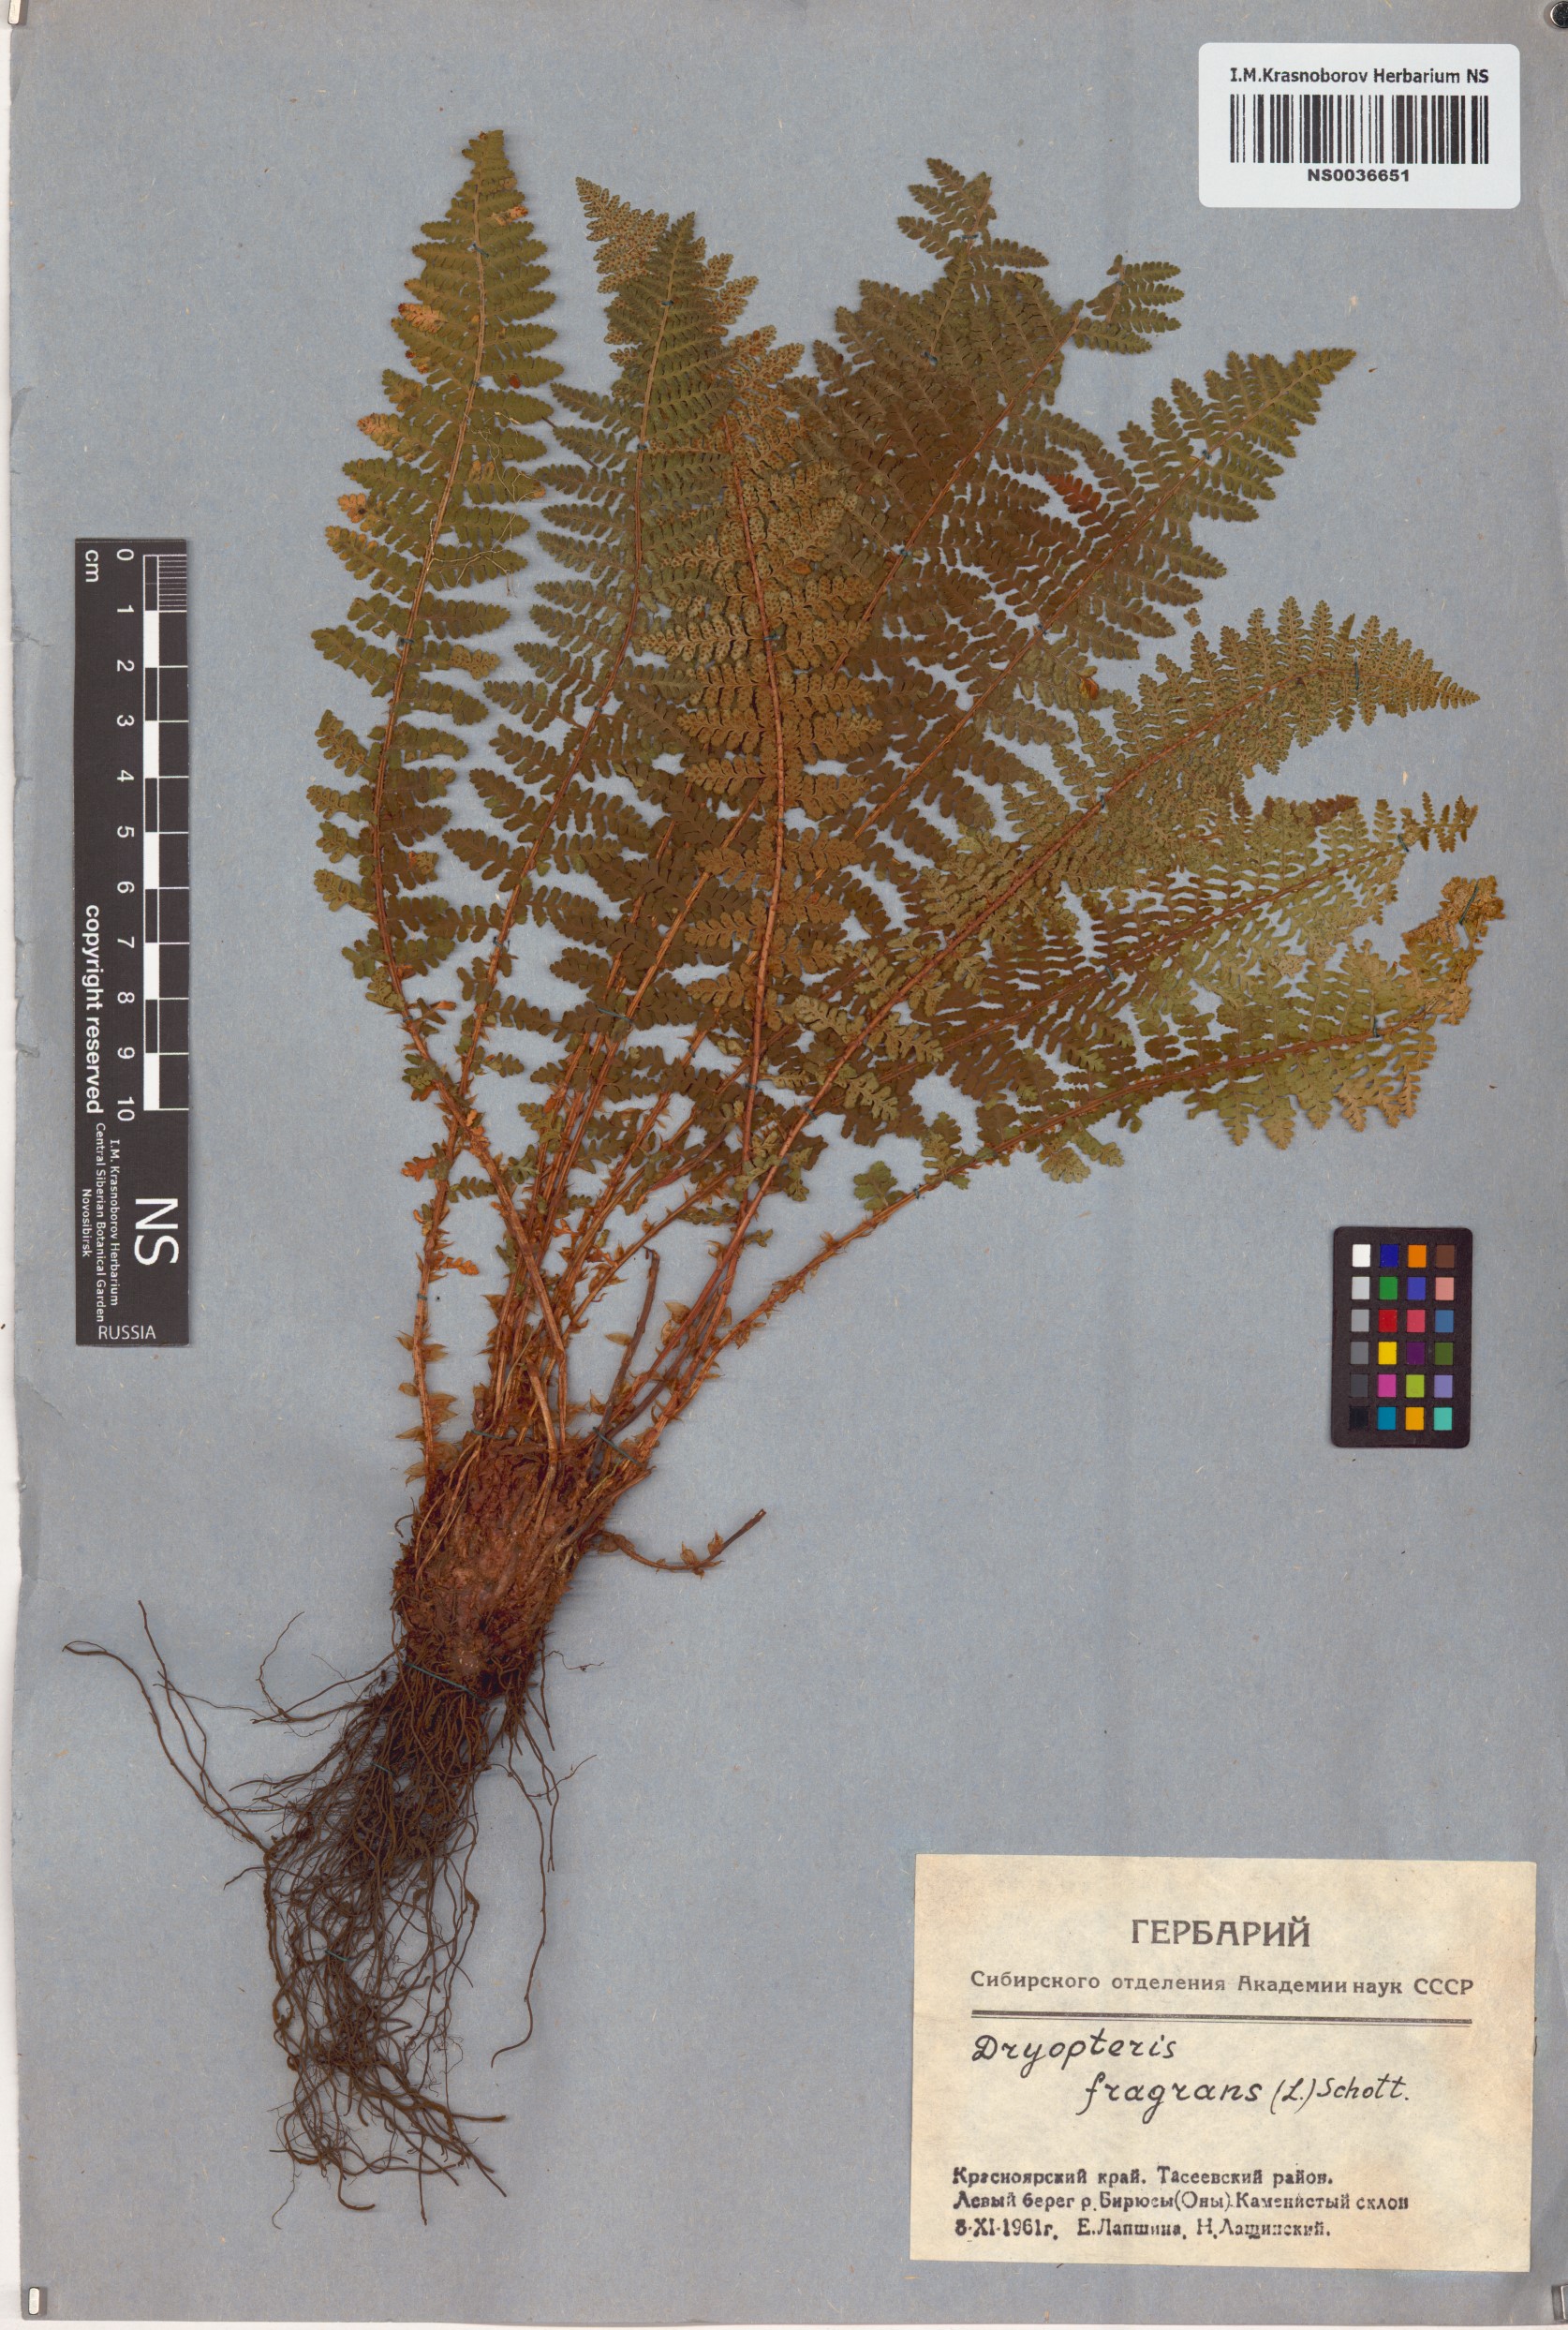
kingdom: Plantae
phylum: Tracheophyta
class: Polypodiopsida
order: Polypodiales
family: Dryopteridaceae
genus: Dryopteris
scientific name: Dryopteris fragrans
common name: Fragrant wood fern
